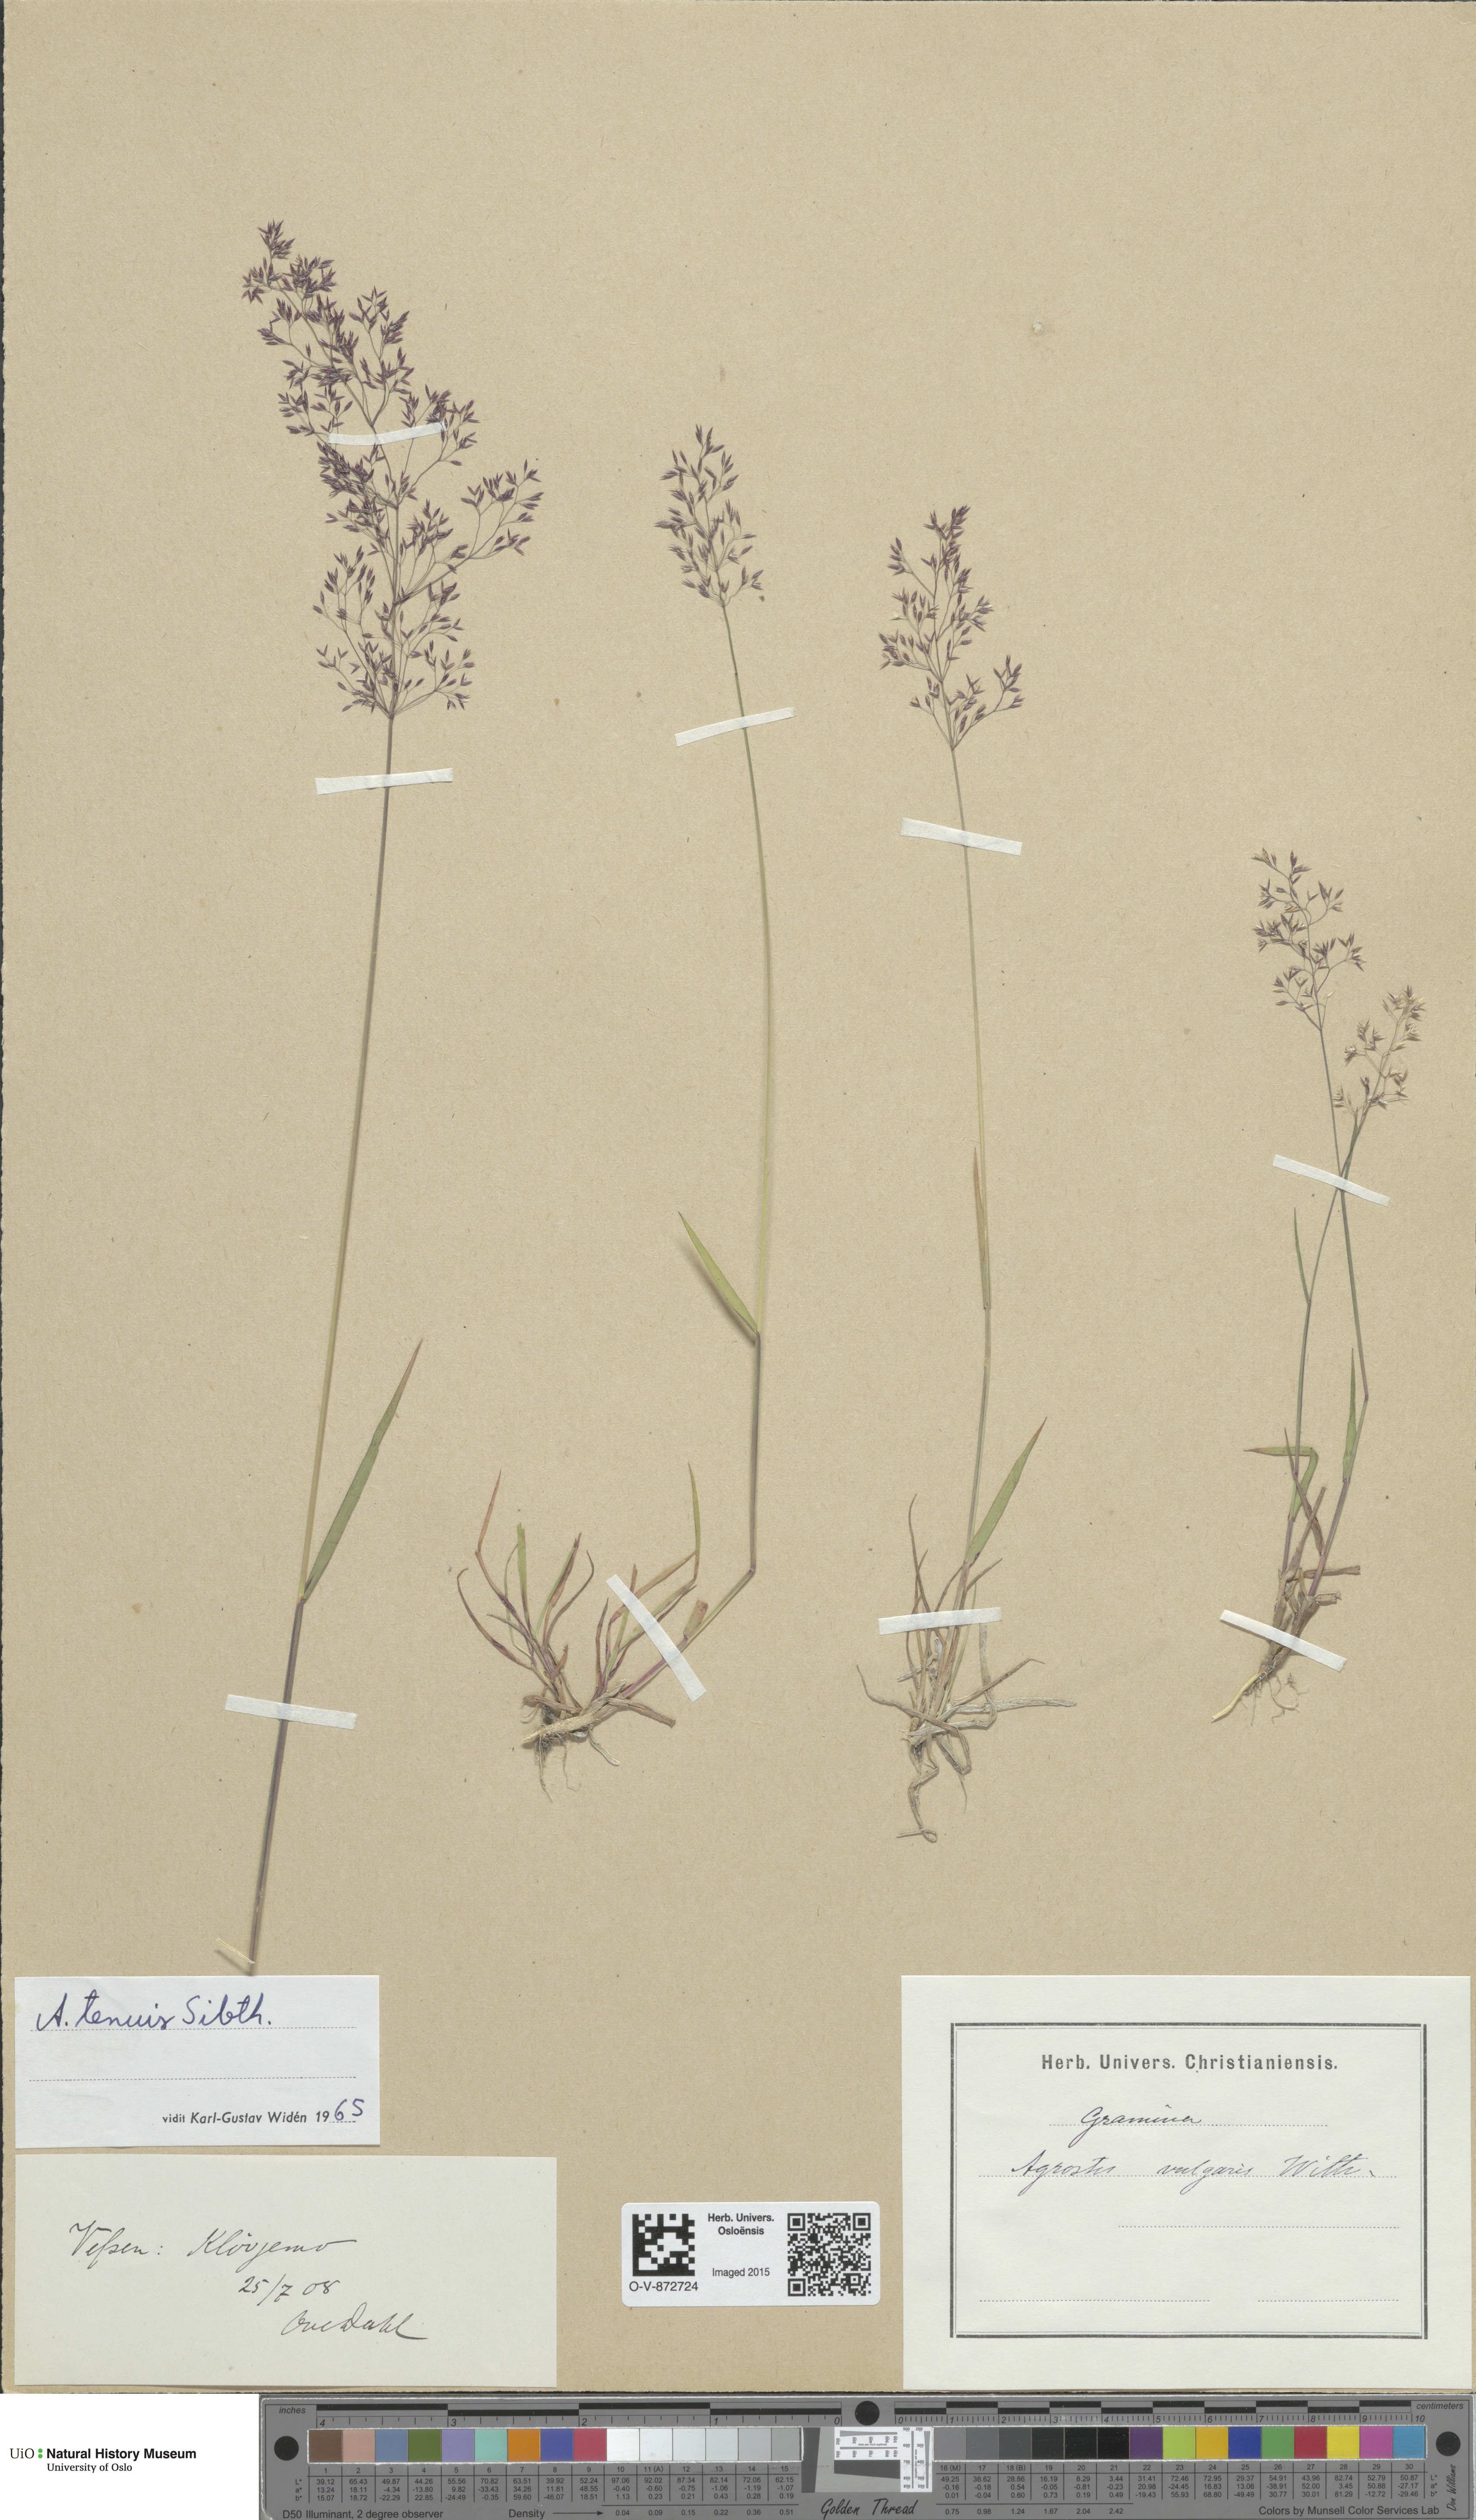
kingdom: Plantae
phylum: Tracheophyta
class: Liliopsida
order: Poales
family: Poaceae
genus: Agrostis
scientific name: Agrostis capillaris
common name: Colonial bentgrass
